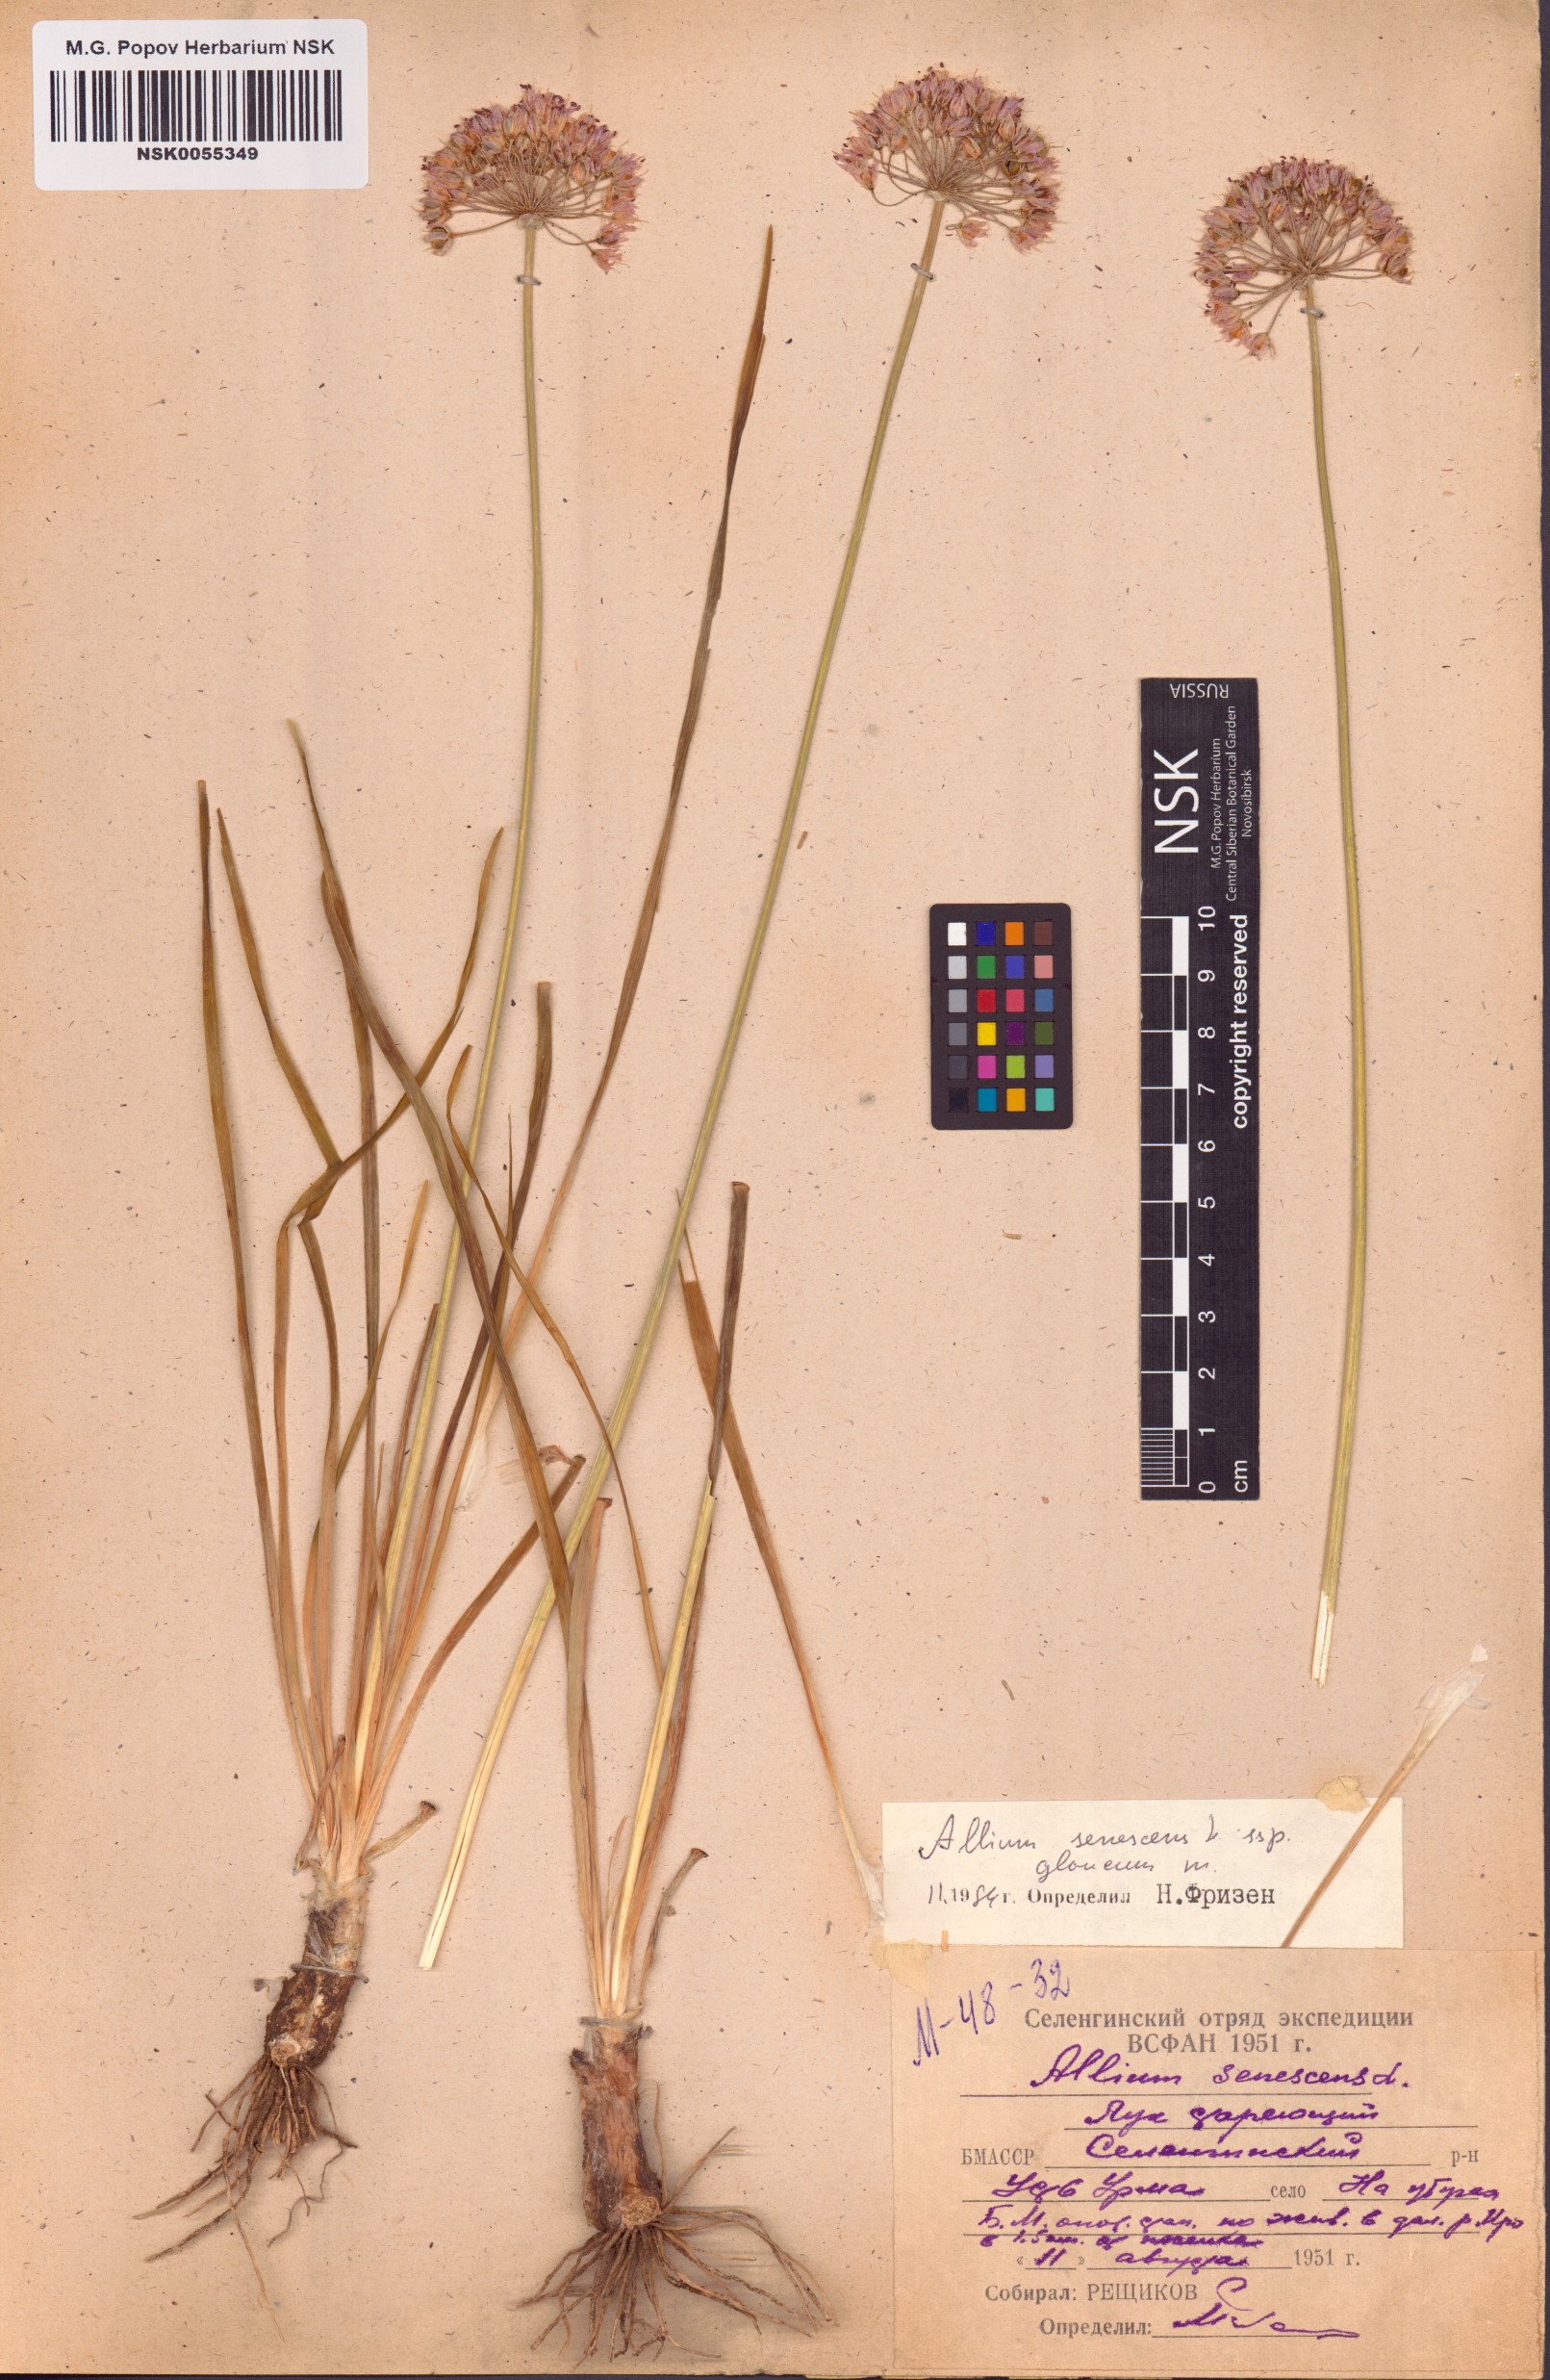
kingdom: Plantae
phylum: Tracheophyta
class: Liliopsida
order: Asparagales
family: Amaryllidaceae
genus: Allium
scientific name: Allium senescens
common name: German garlic
